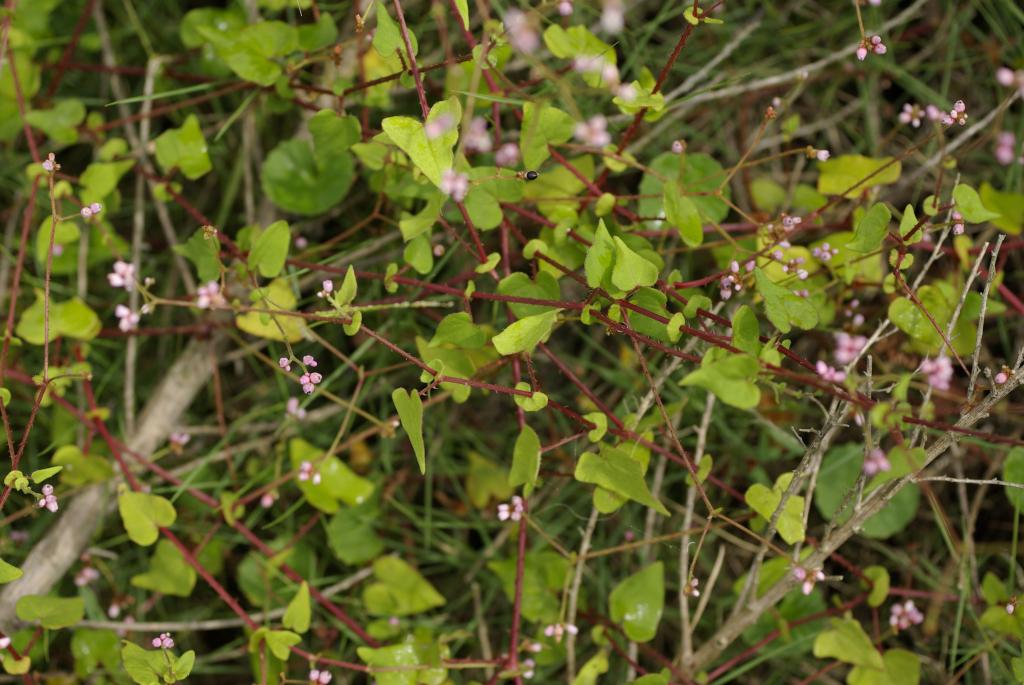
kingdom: Plantae
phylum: Tracheophyta
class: Magnoliopsida
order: Caryophyllales
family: Polygonaceae
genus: Persicaria
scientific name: Persicaria senticosa
